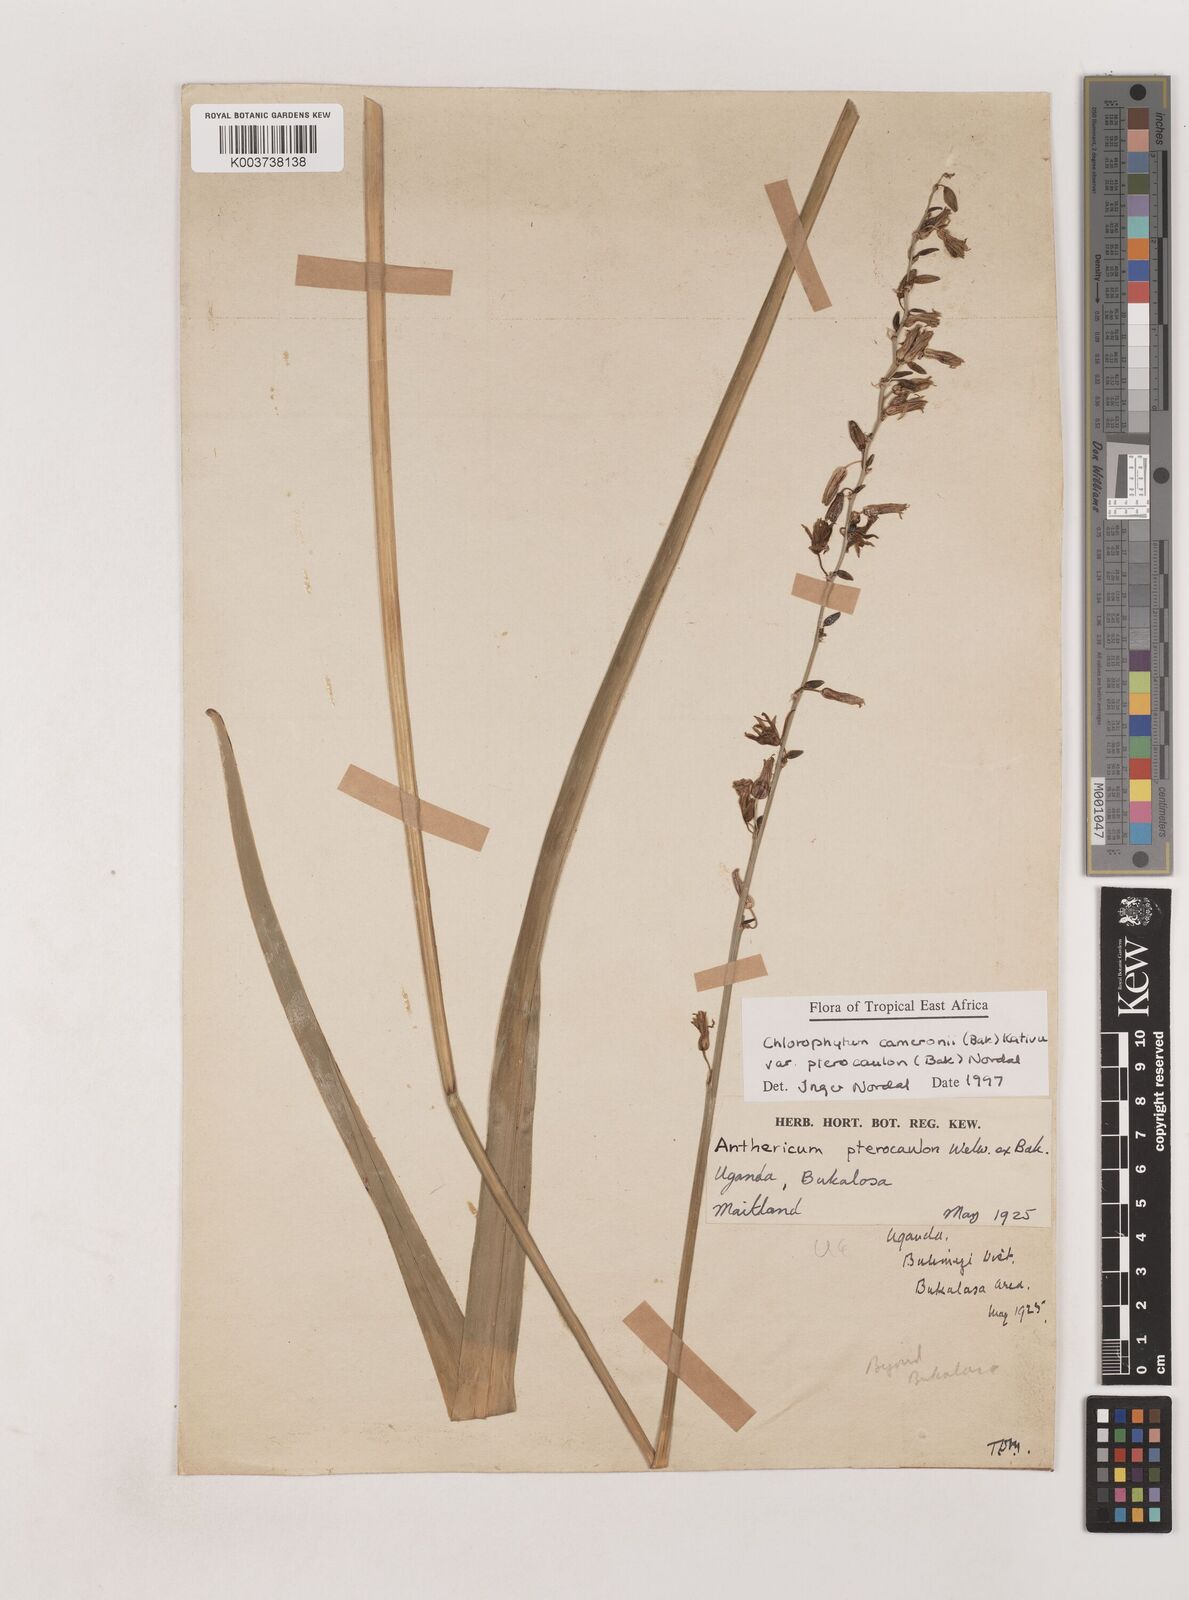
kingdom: Plantae
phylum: Tracheophyta
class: Liliopsida
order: Asparagales
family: Asparagaceae
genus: Chlorophytum
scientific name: Chlorophytum cameronii
